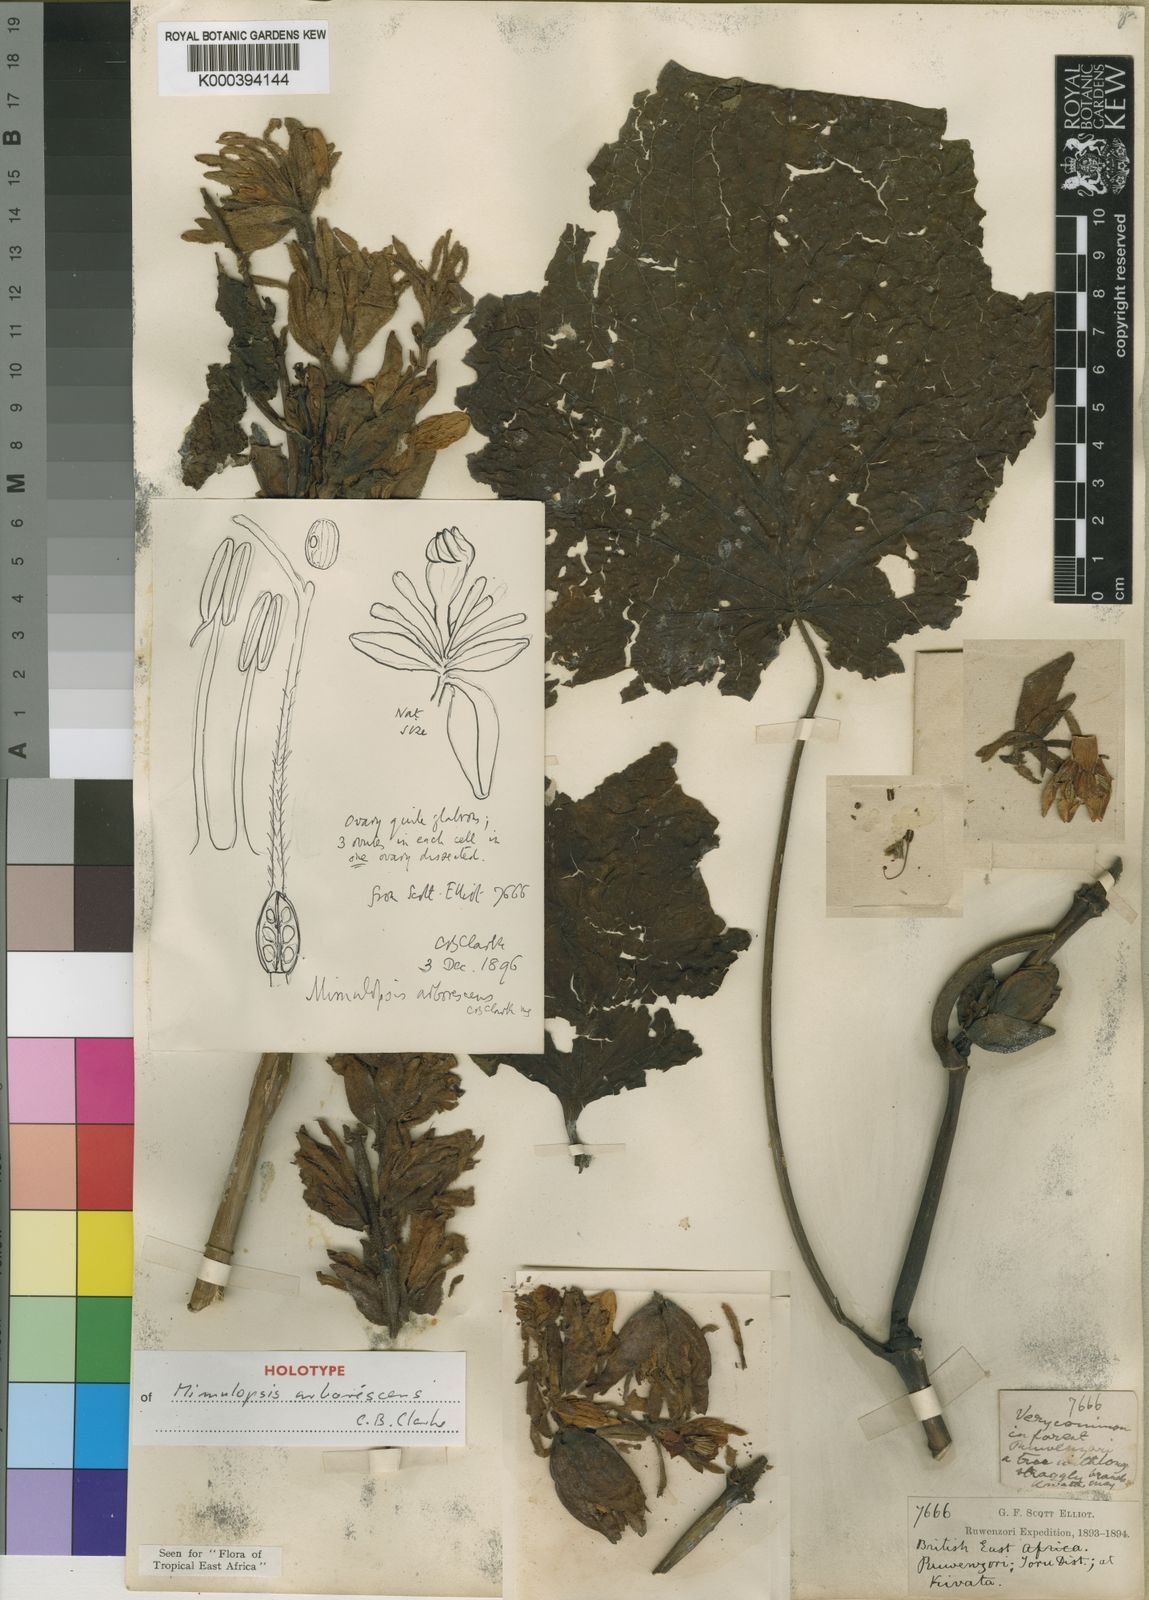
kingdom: Plantae
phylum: Tracheophyta
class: Magnoliopsida
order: Lamiales
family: Acanthaceae
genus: Mimulopsis
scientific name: Mimulopsis arborescens
